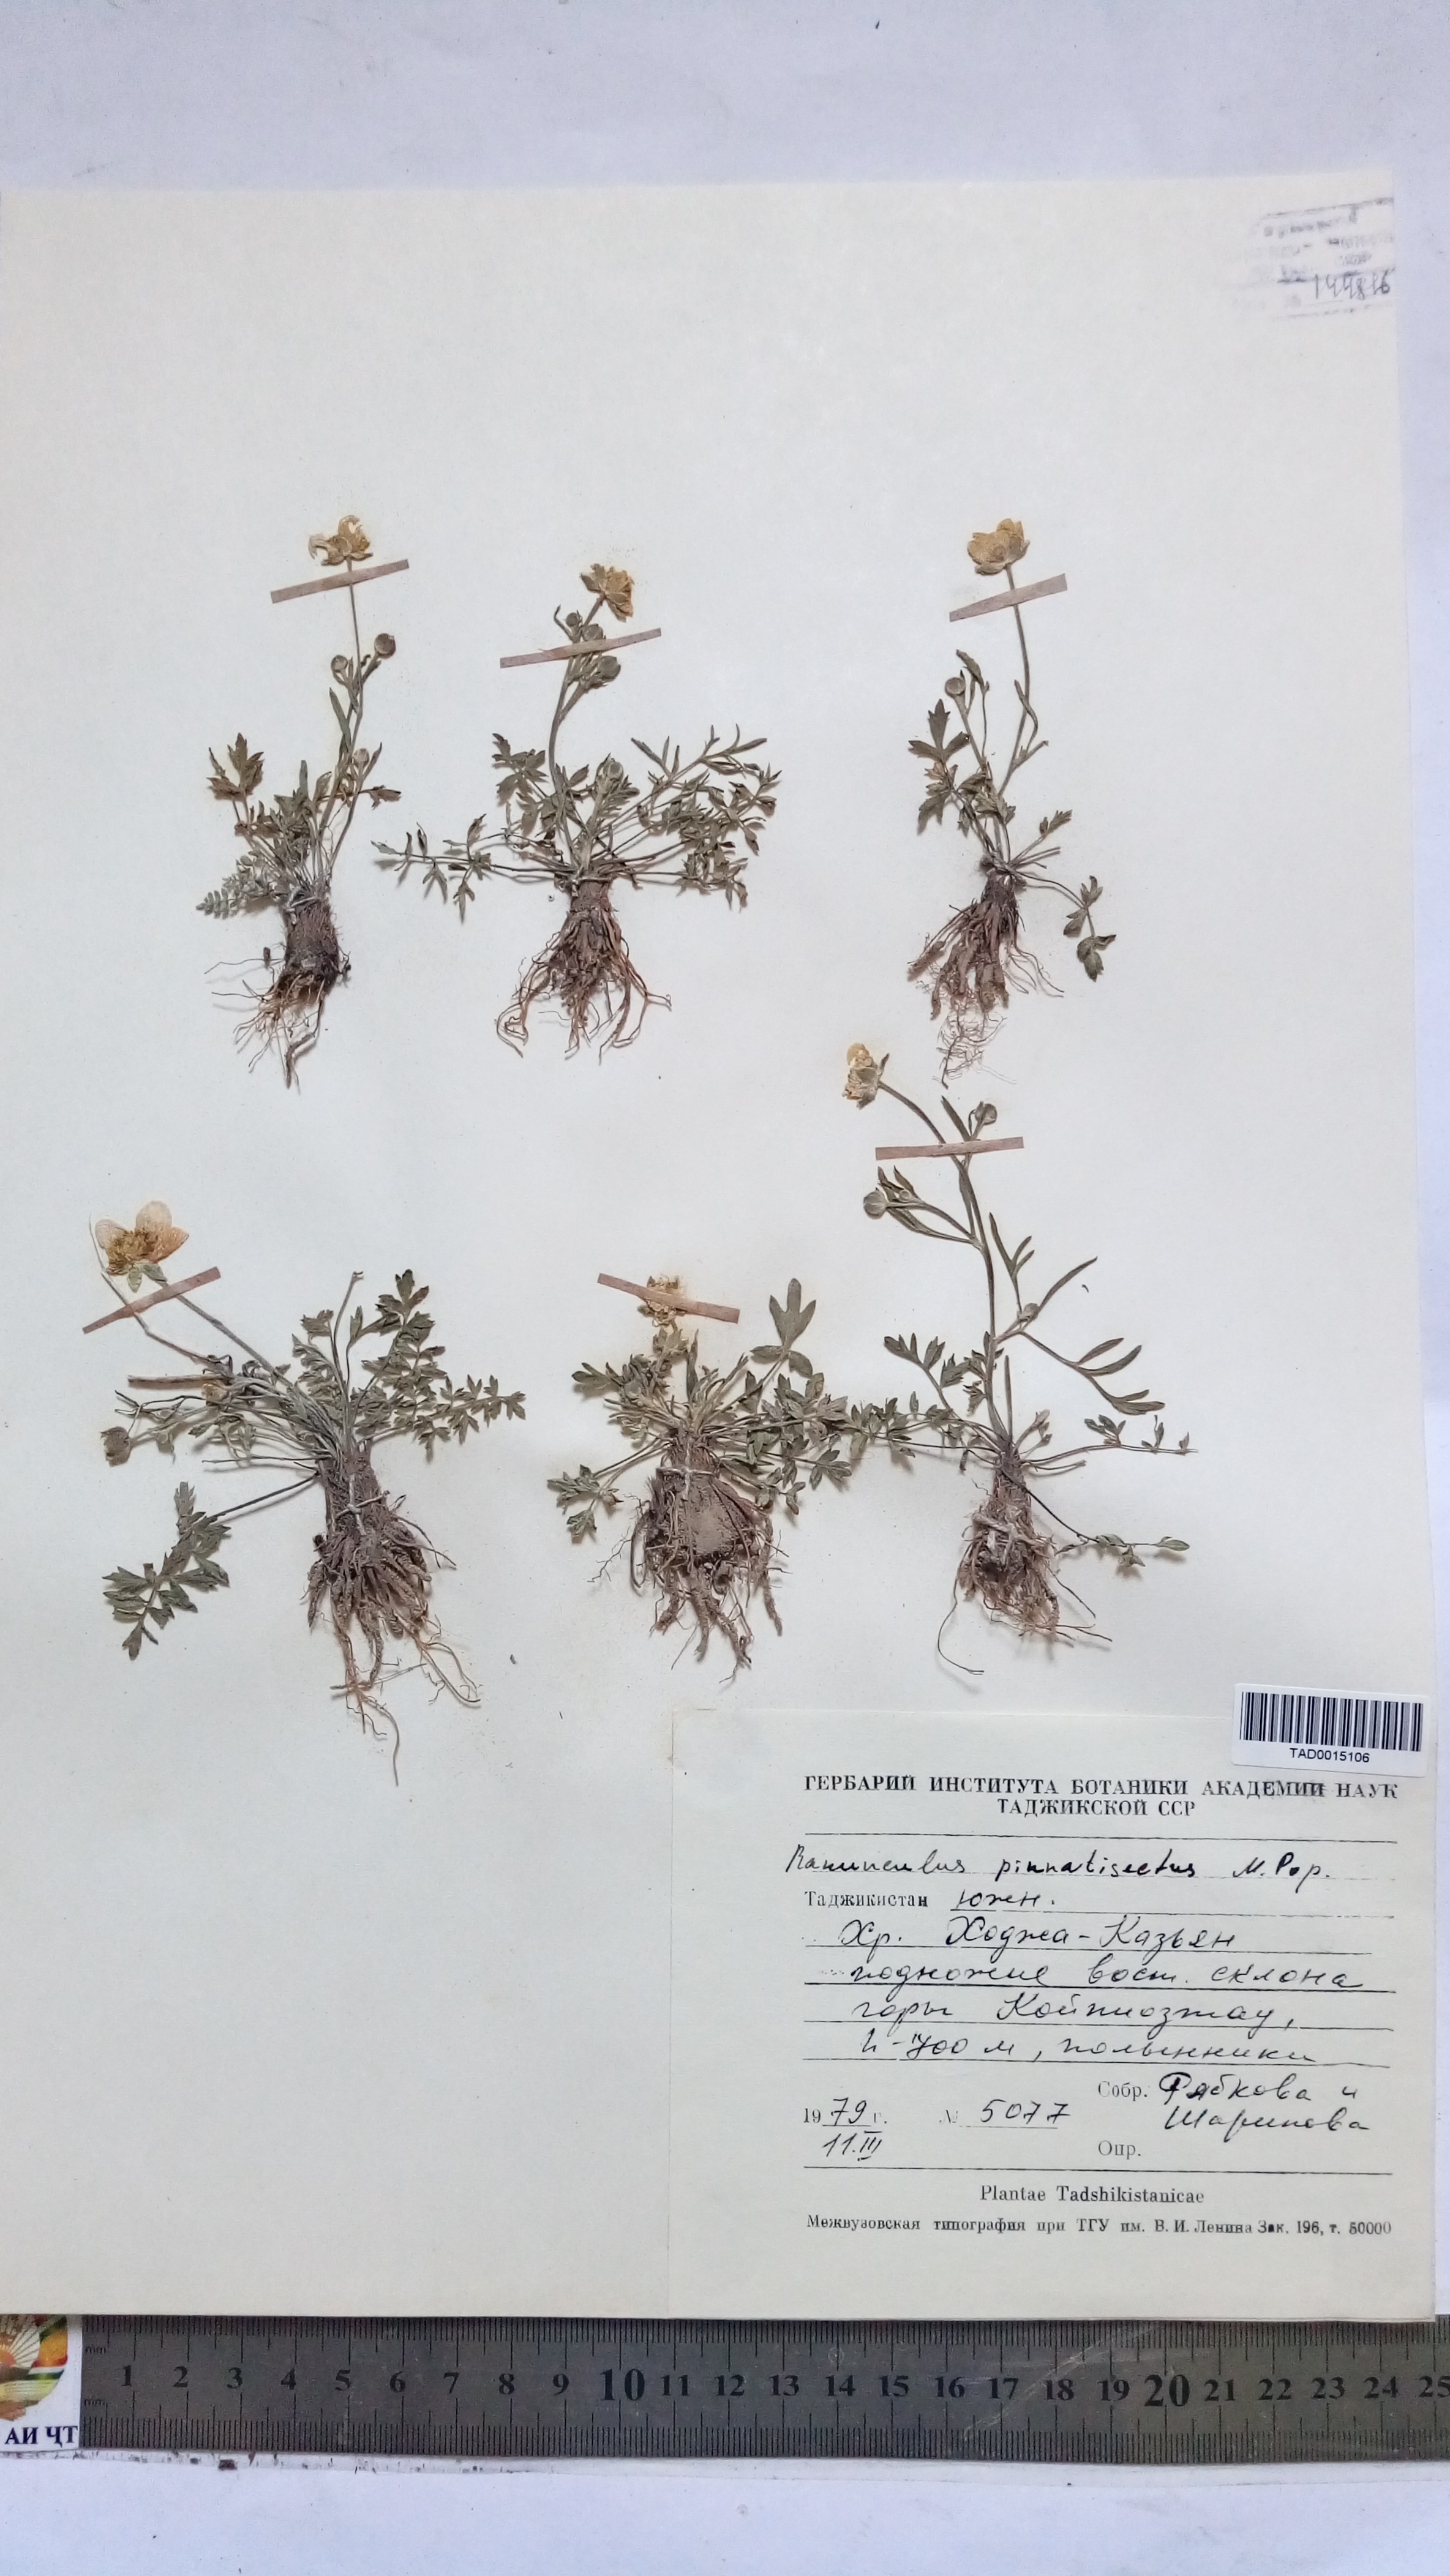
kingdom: Plantae
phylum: Tracheophyta
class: Magnoliopsida
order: Ranunculales
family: Ranunculaceae
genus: Ranunculus
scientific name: Ranunculus pinnatisectus
